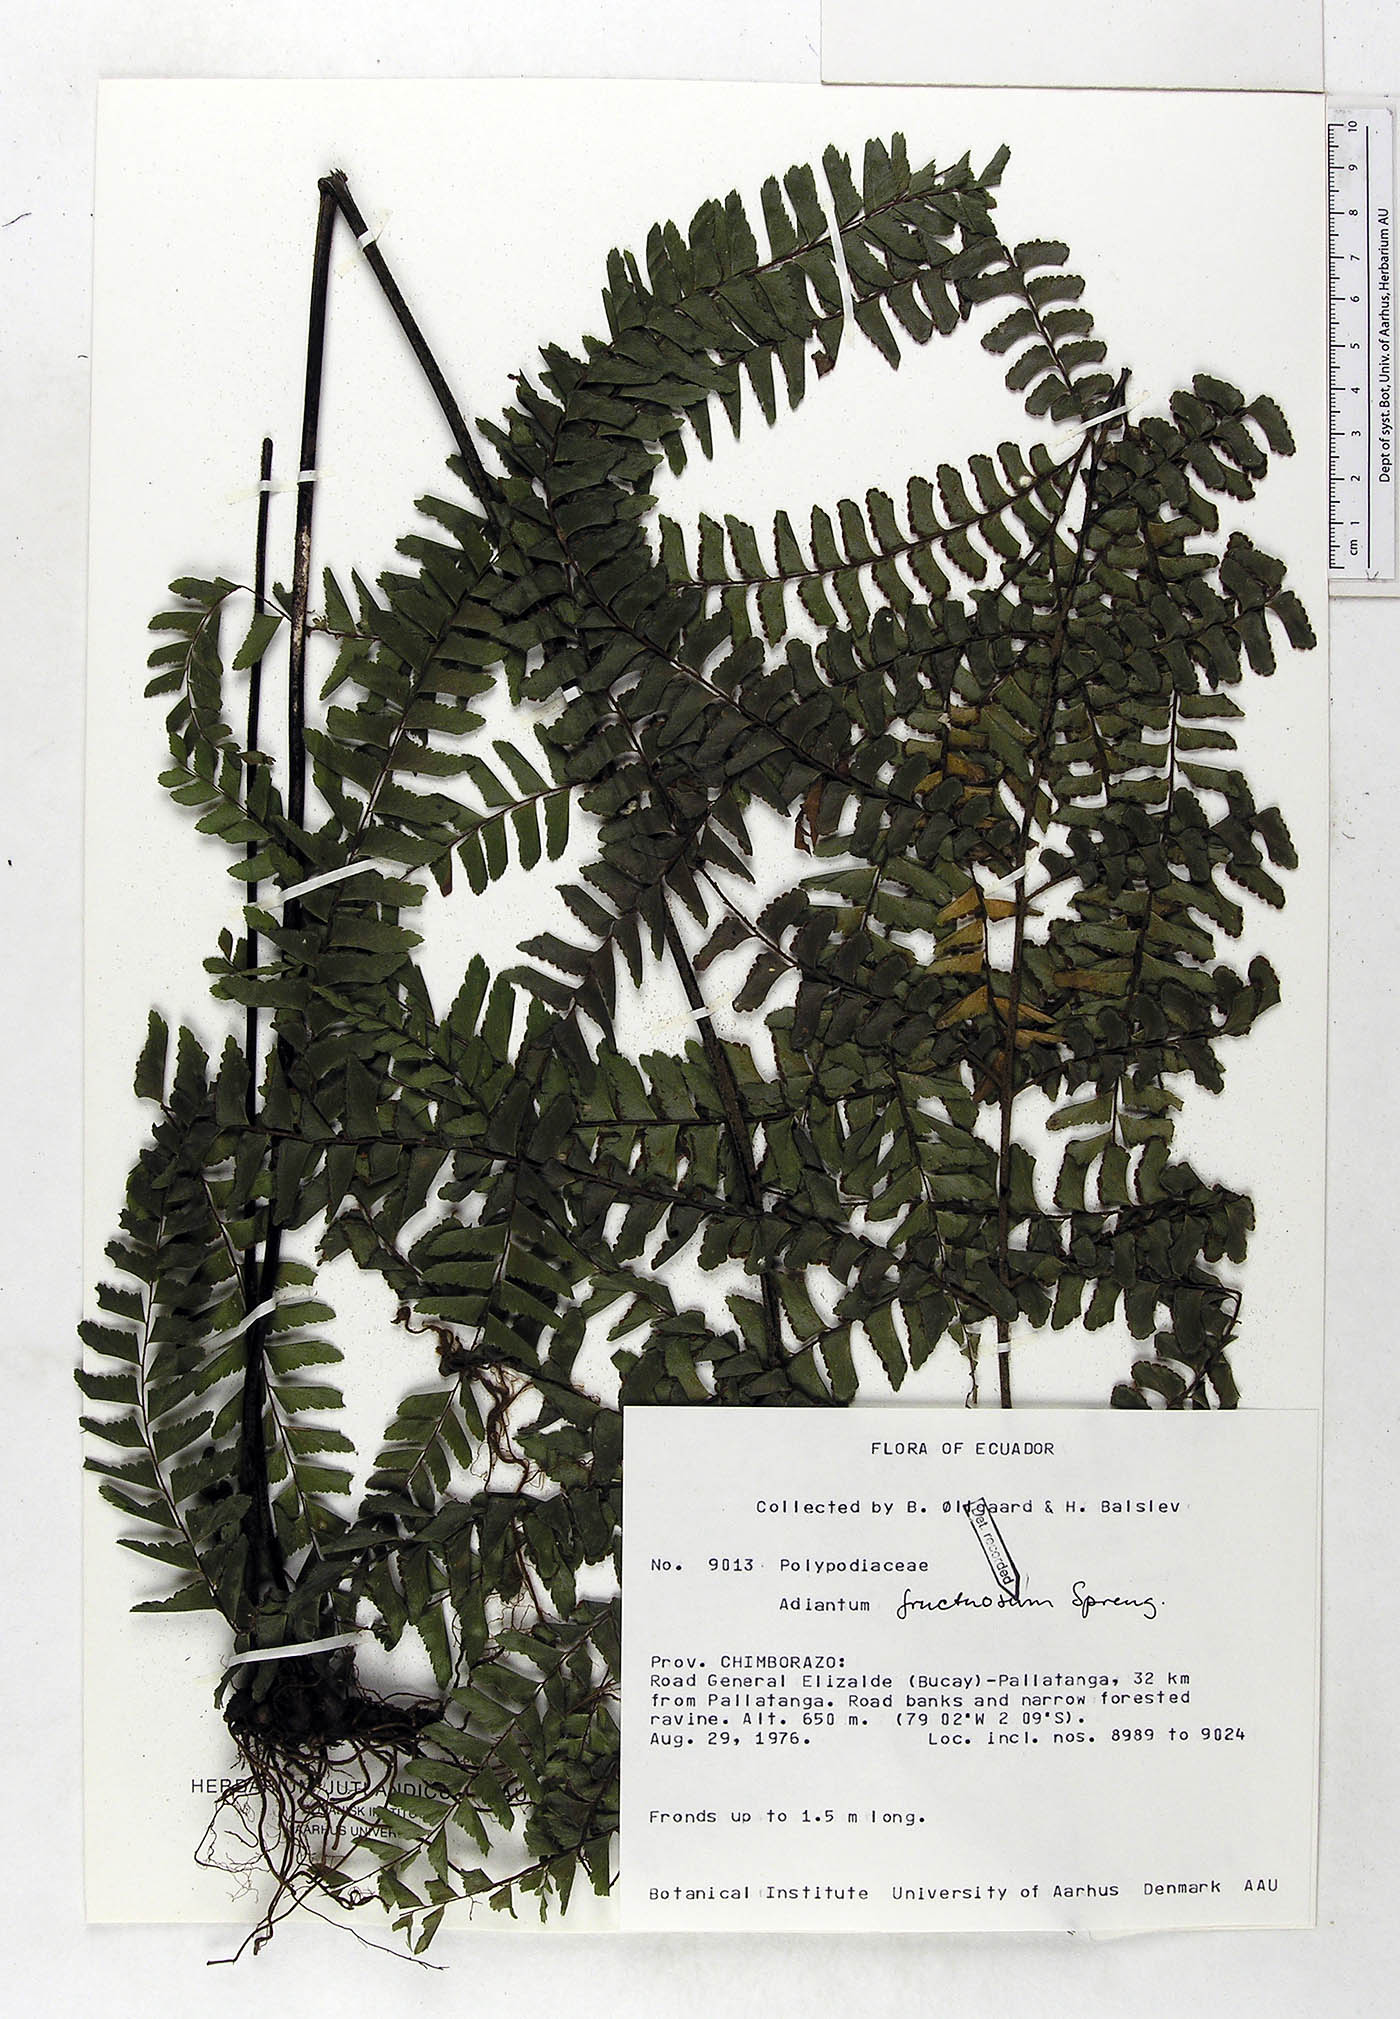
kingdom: Plantae
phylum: Tracheophyta
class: Polypodiopsida
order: Polypodiales
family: Pteridaceae
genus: Adiantum
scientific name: Adiantum tetraphyllum
